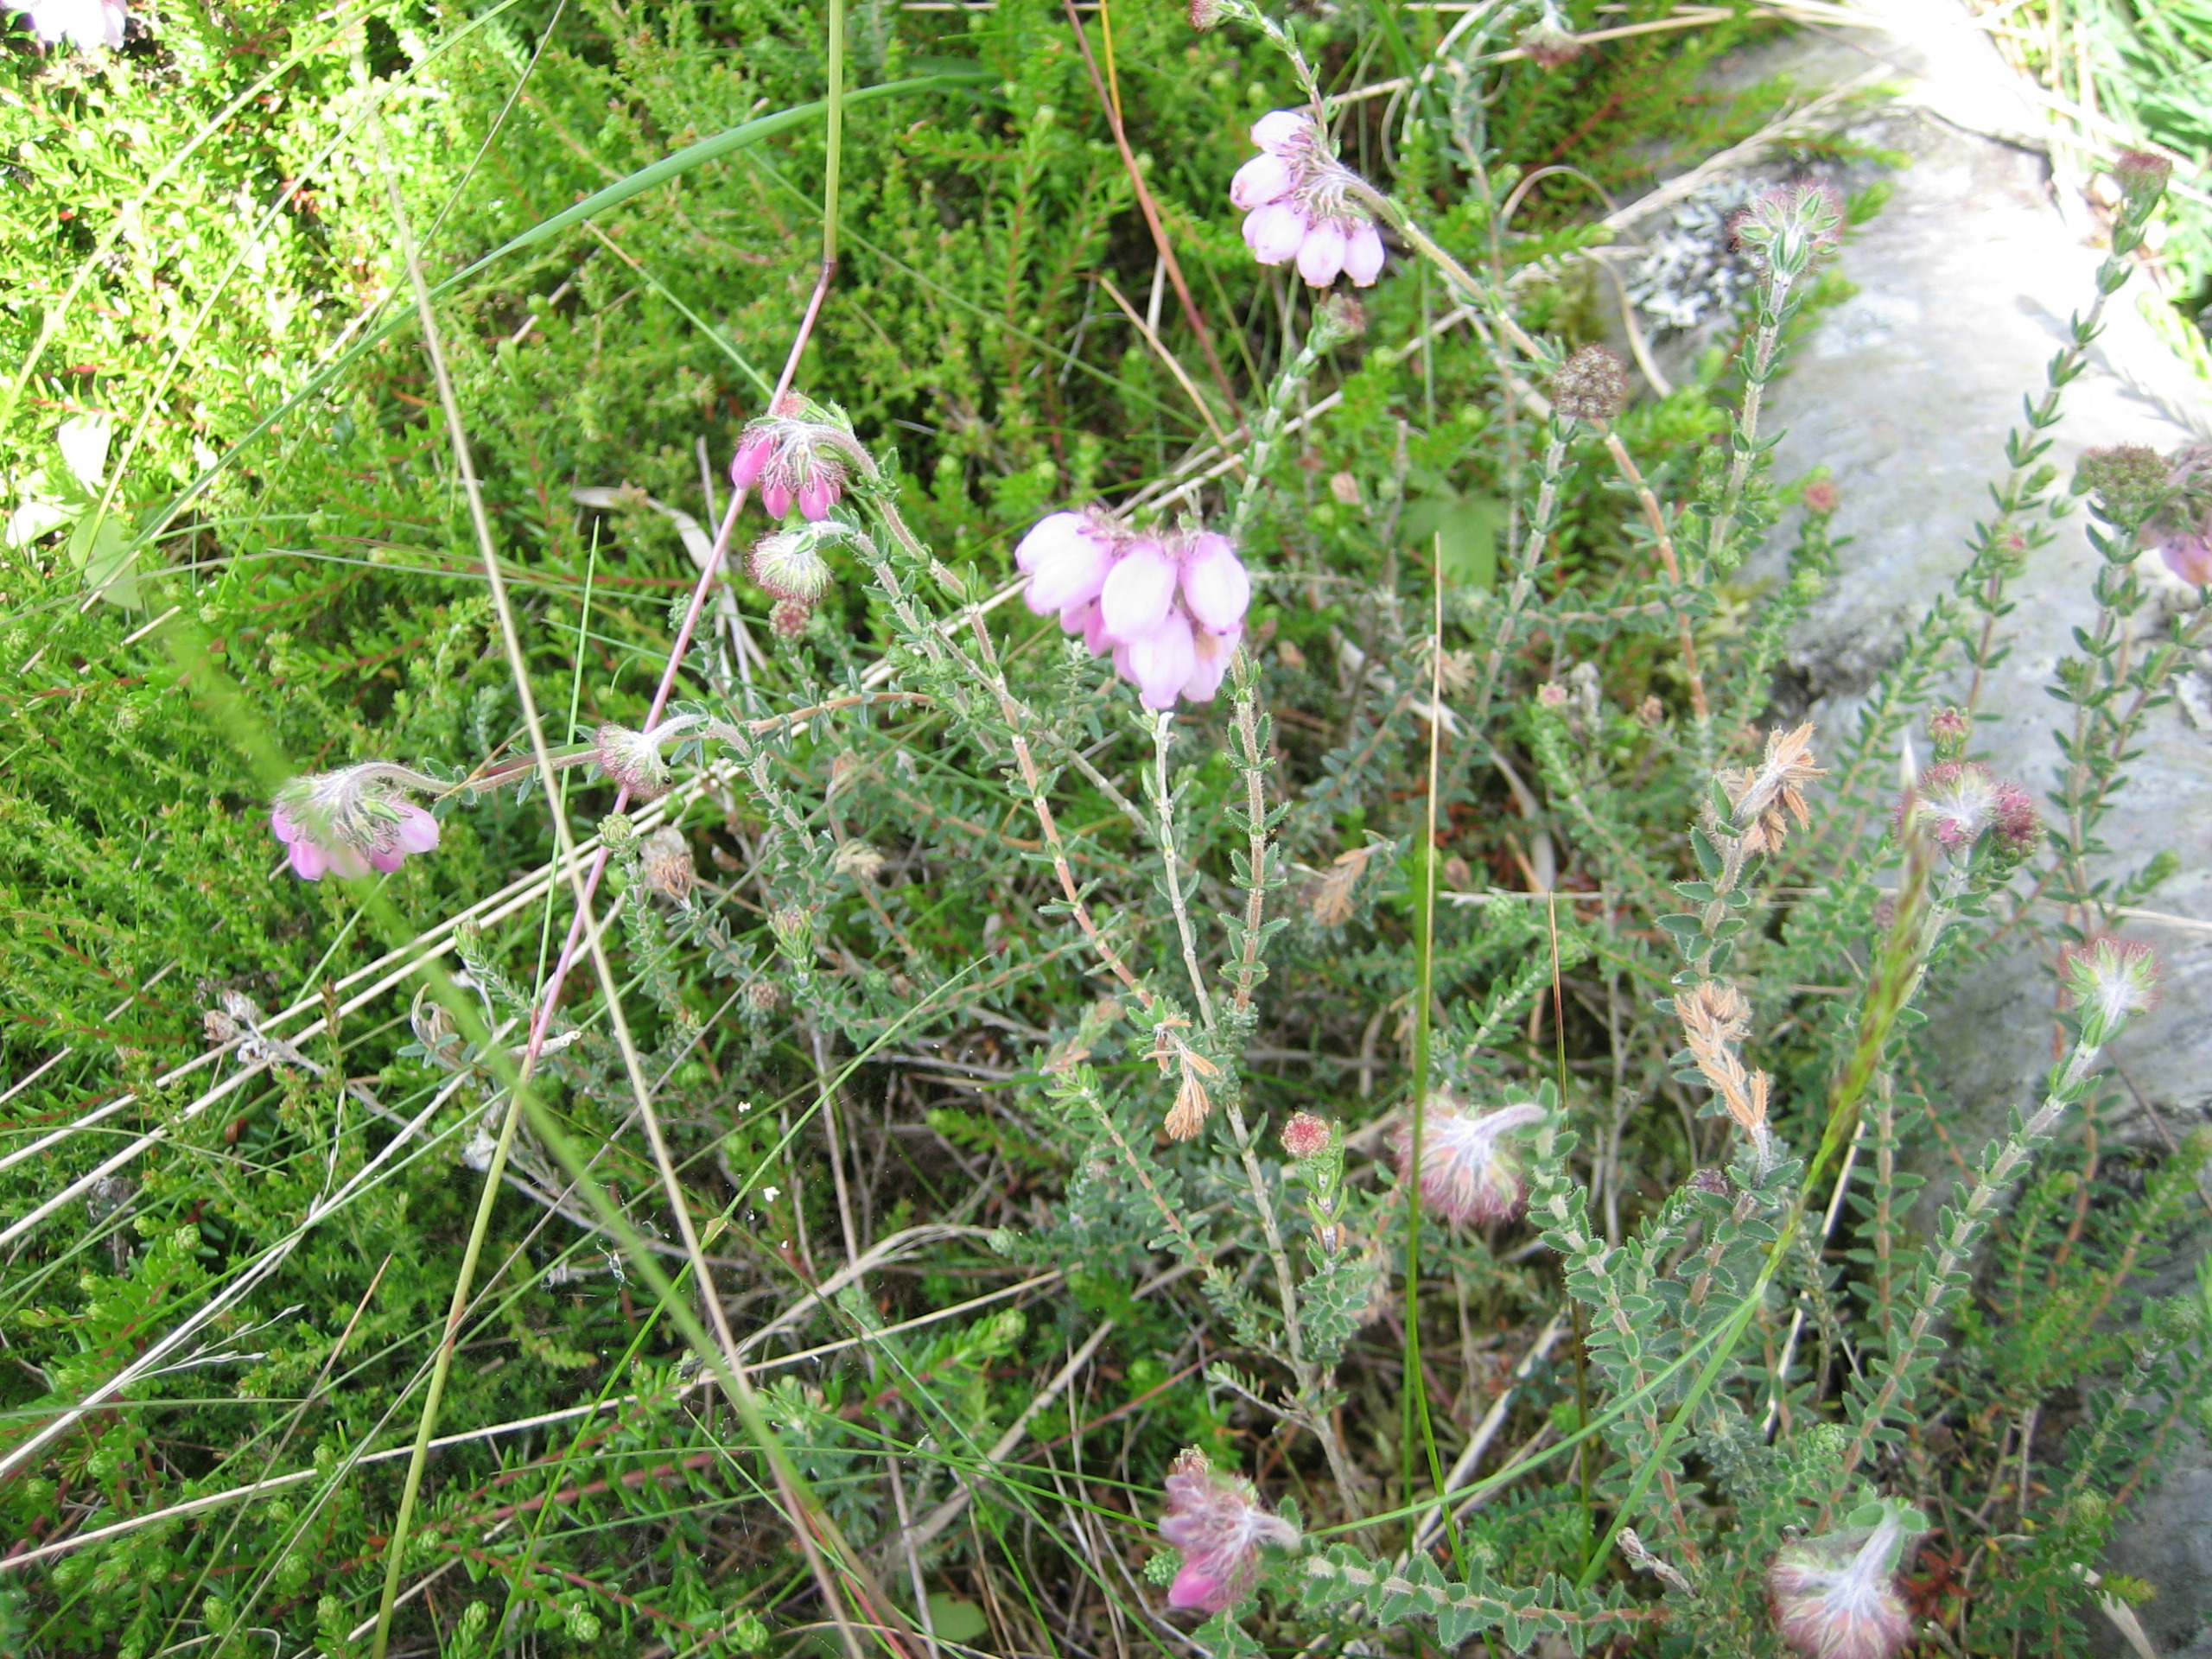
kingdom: Plantae
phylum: Tracheophyta
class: Magnoliopsida
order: Ericales
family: Ericaceae
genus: Erica
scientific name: Erica tetralix
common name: Klokkelyng
